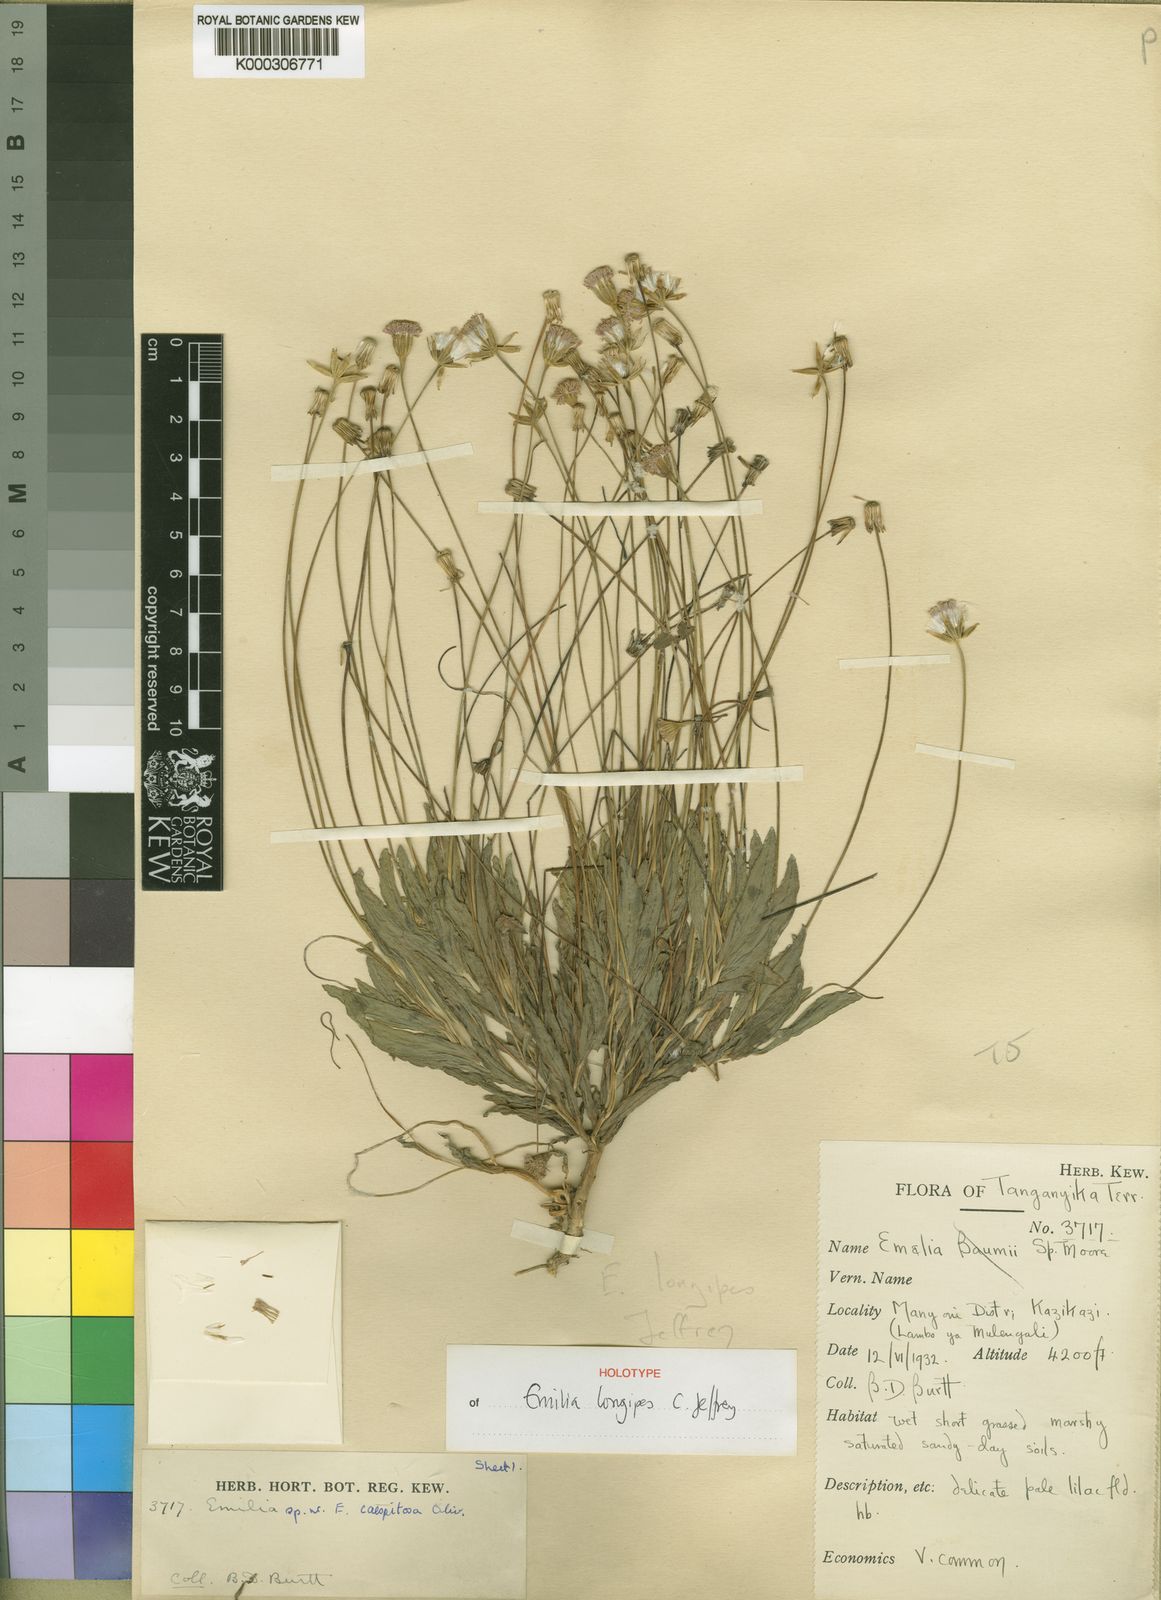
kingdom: Plantae
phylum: Tracheophyta
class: Magnoliopsida
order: Asterales
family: Asteraceae
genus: Emilia
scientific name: Emilia longipes
